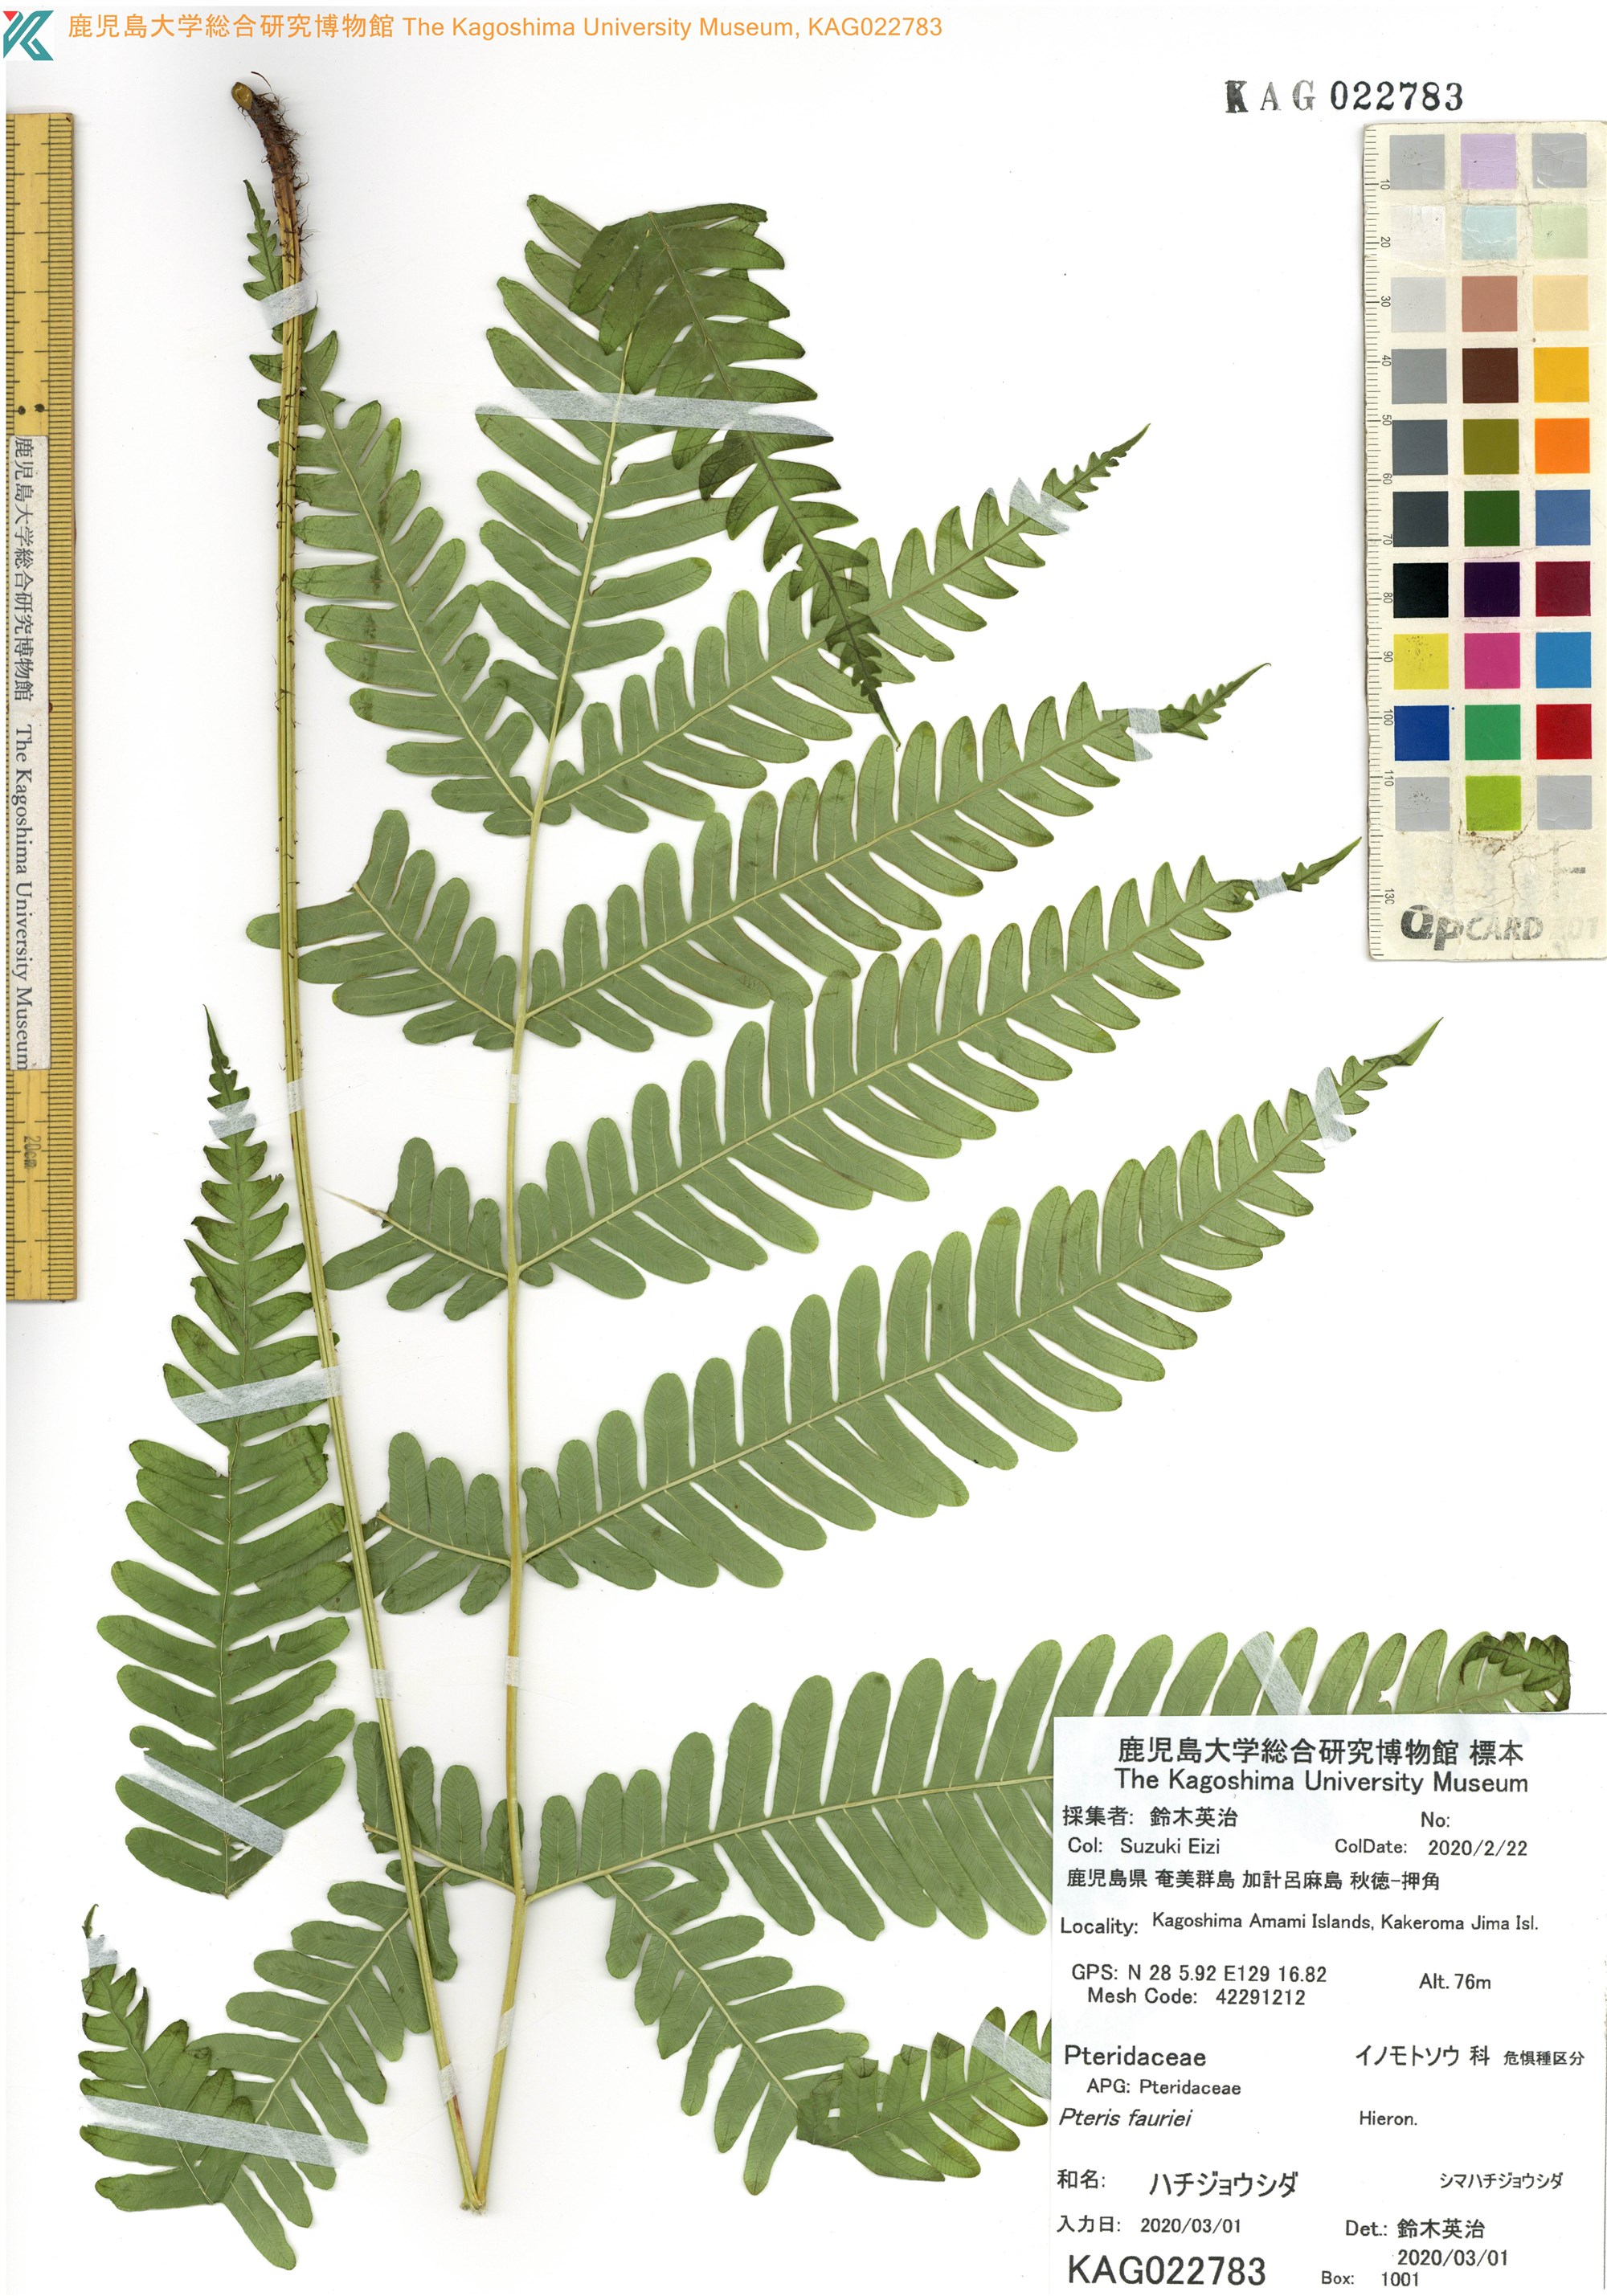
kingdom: Plantae
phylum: Tracheophyta
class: Polypodiopsida
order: Polypodiales
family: Pteridaceae
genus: Pteris
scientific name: Pteris fauriei
